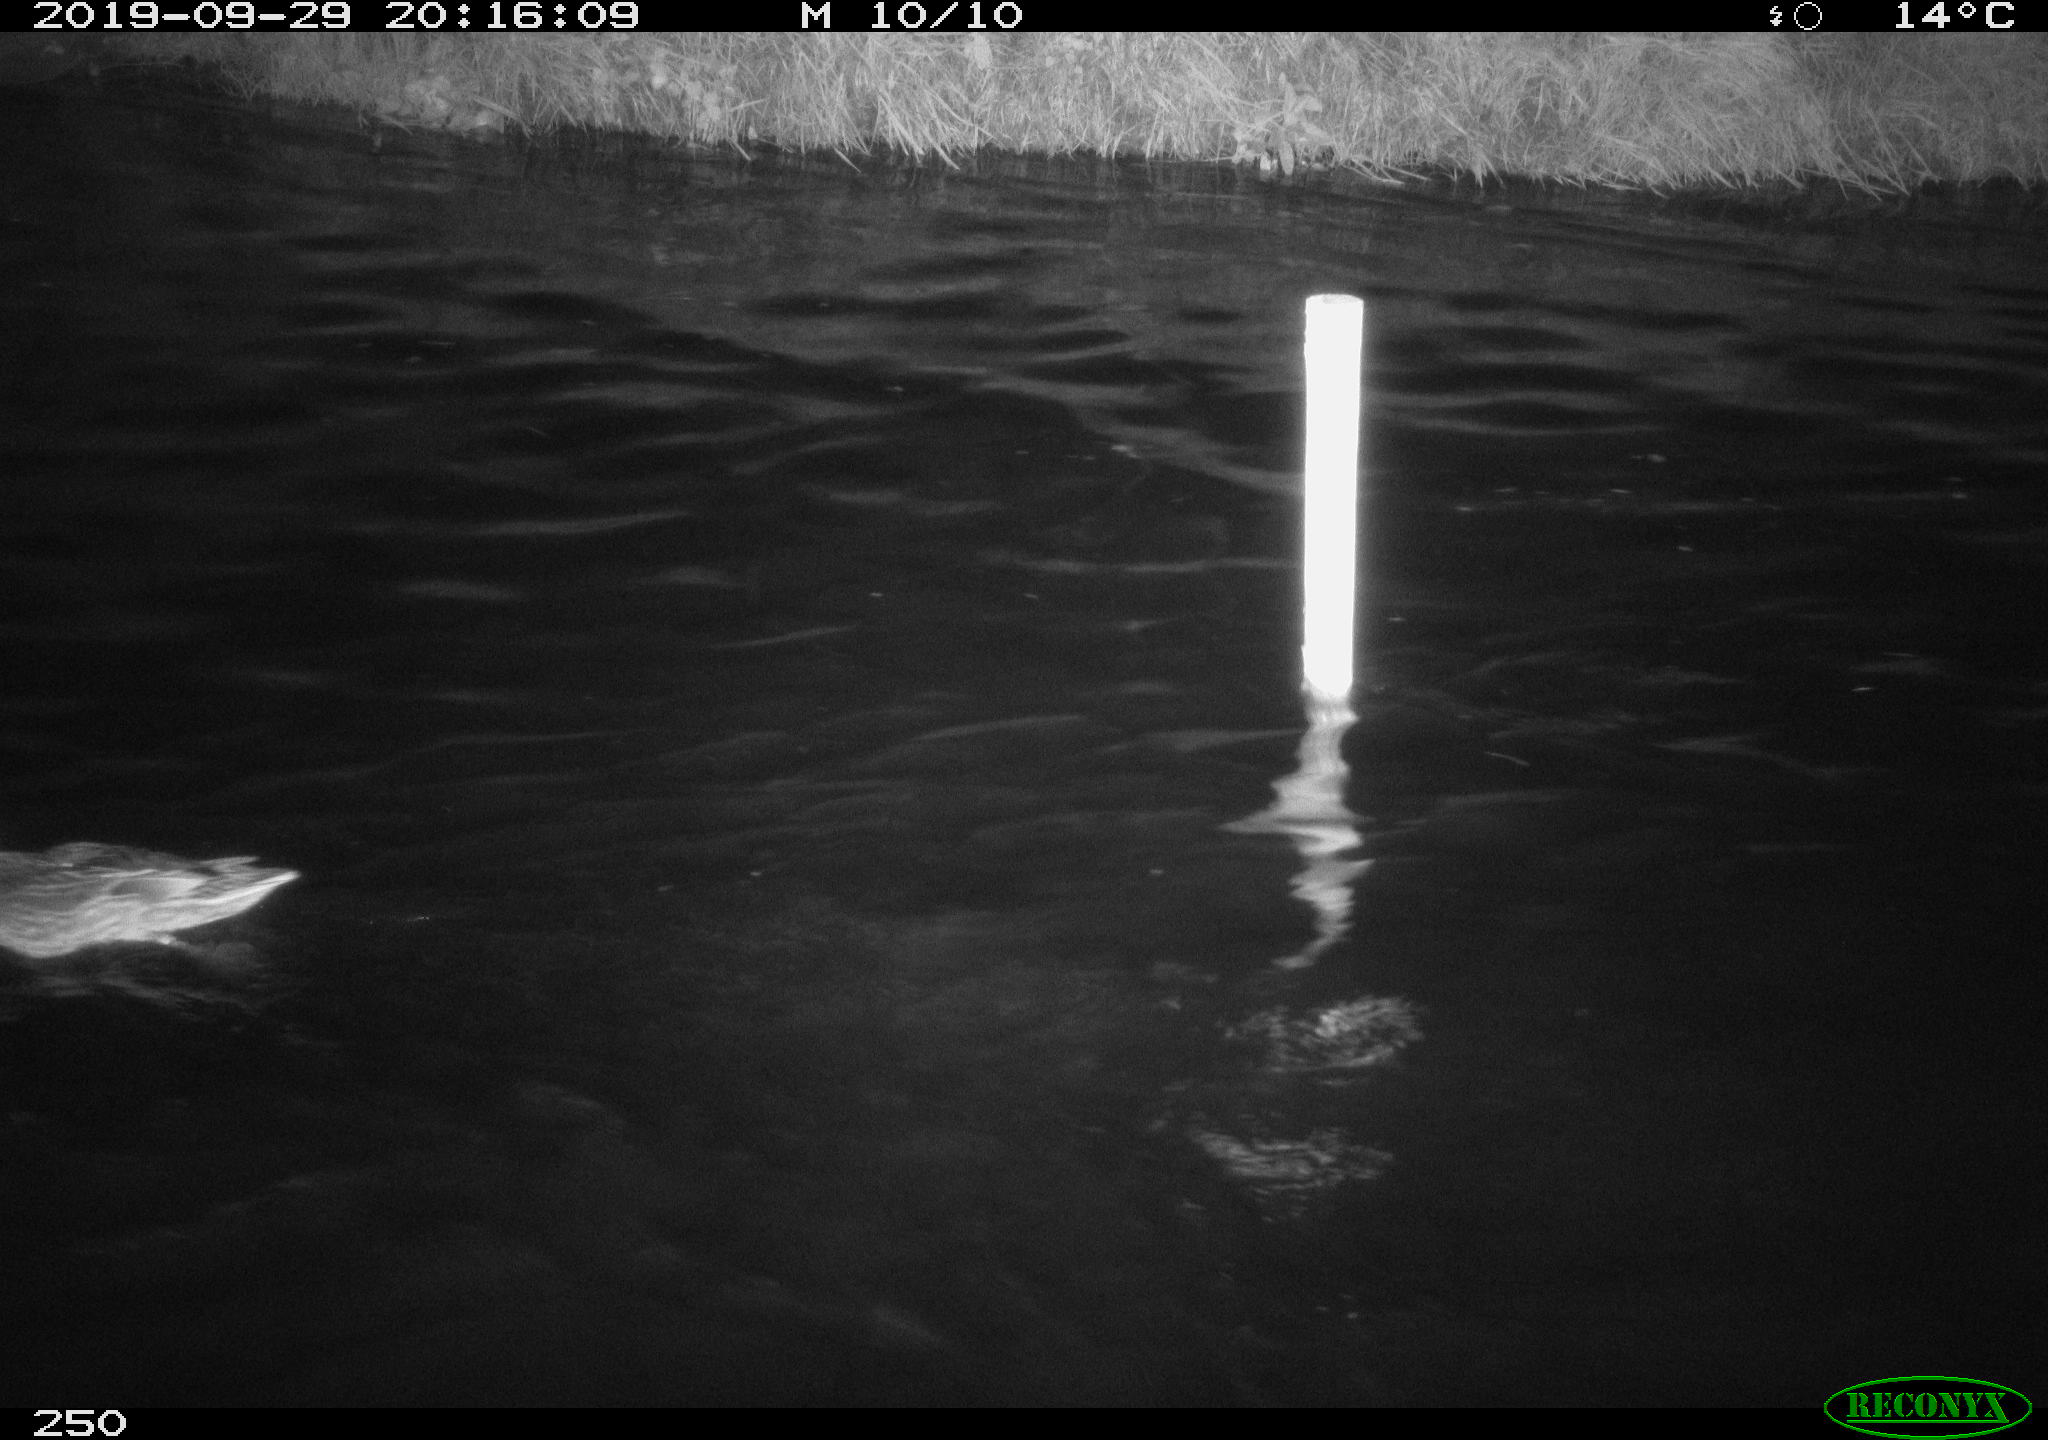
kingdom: Animalia
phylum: Chordata
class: Aves
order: Anseriformes
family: Anatidae
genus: Anas
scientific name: Anas platyrhynchos
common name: Mallard
